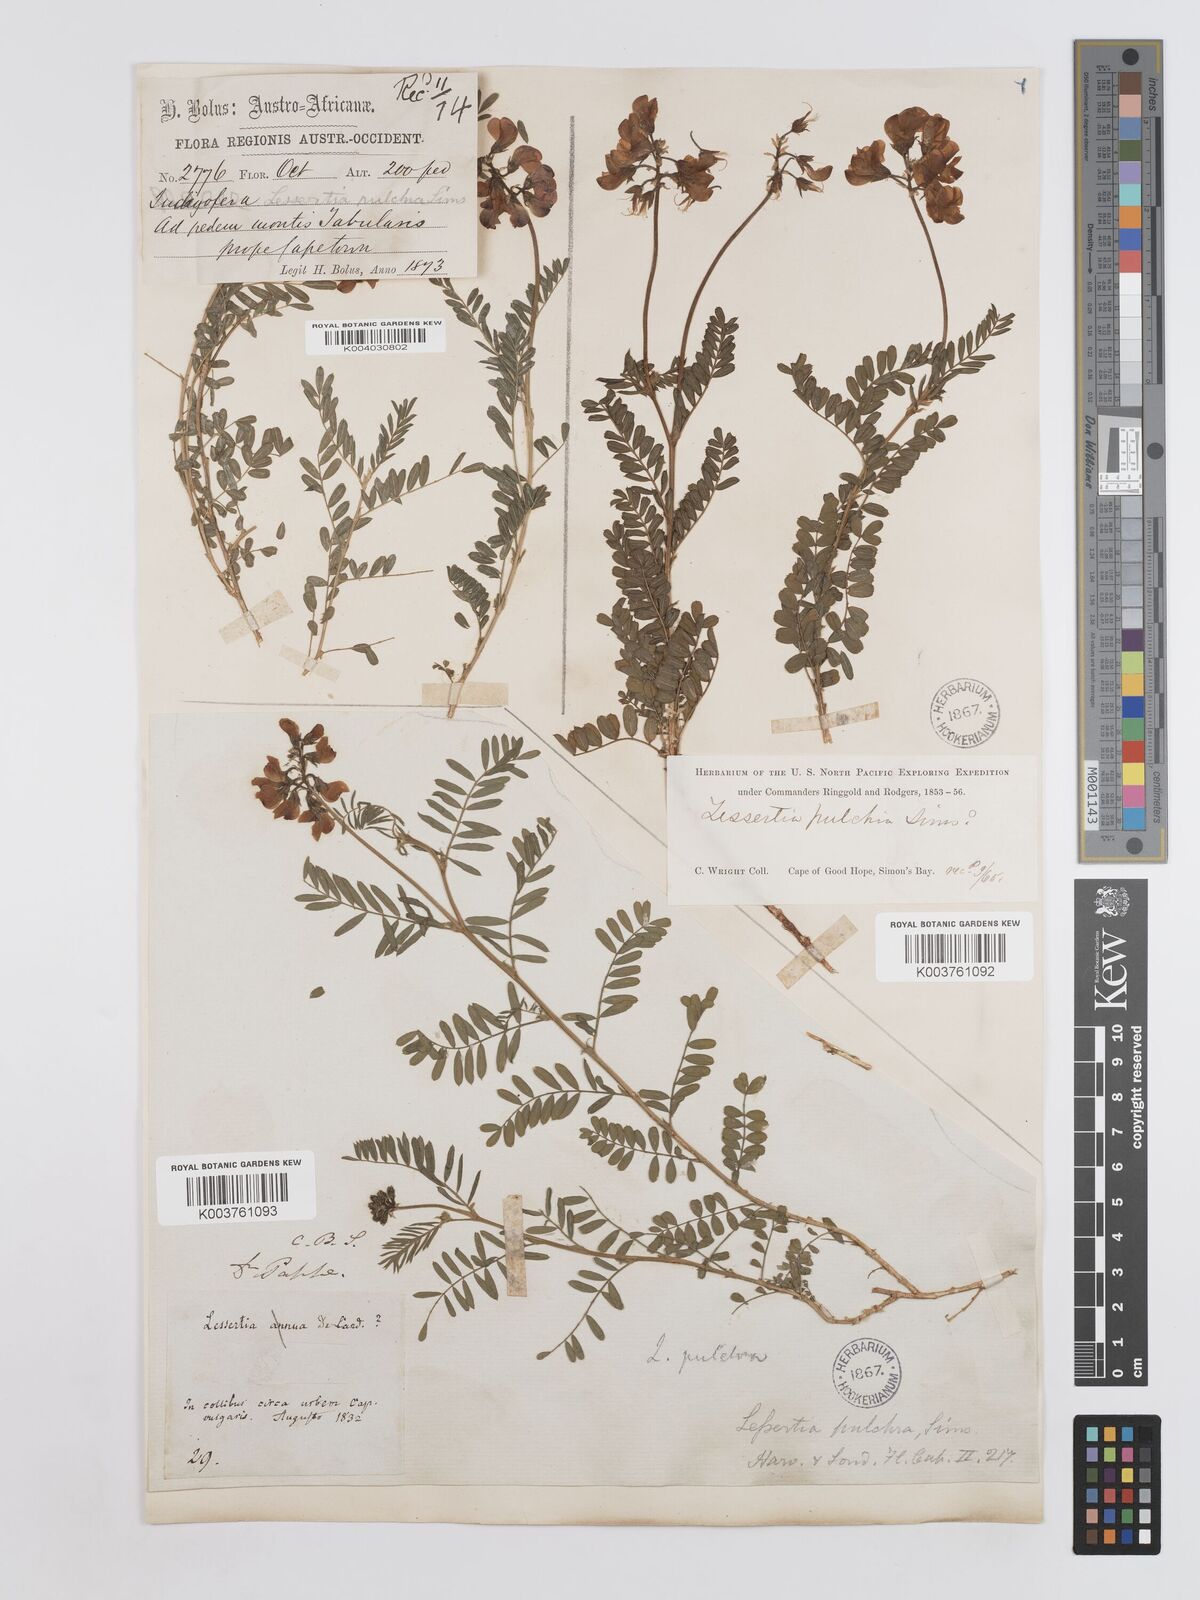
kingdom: Plantae
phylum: Tracheophyta
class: Magnoliopsida
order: Fabales
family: Fabaceae
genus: Lessertia
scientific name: Lessertia capensis
